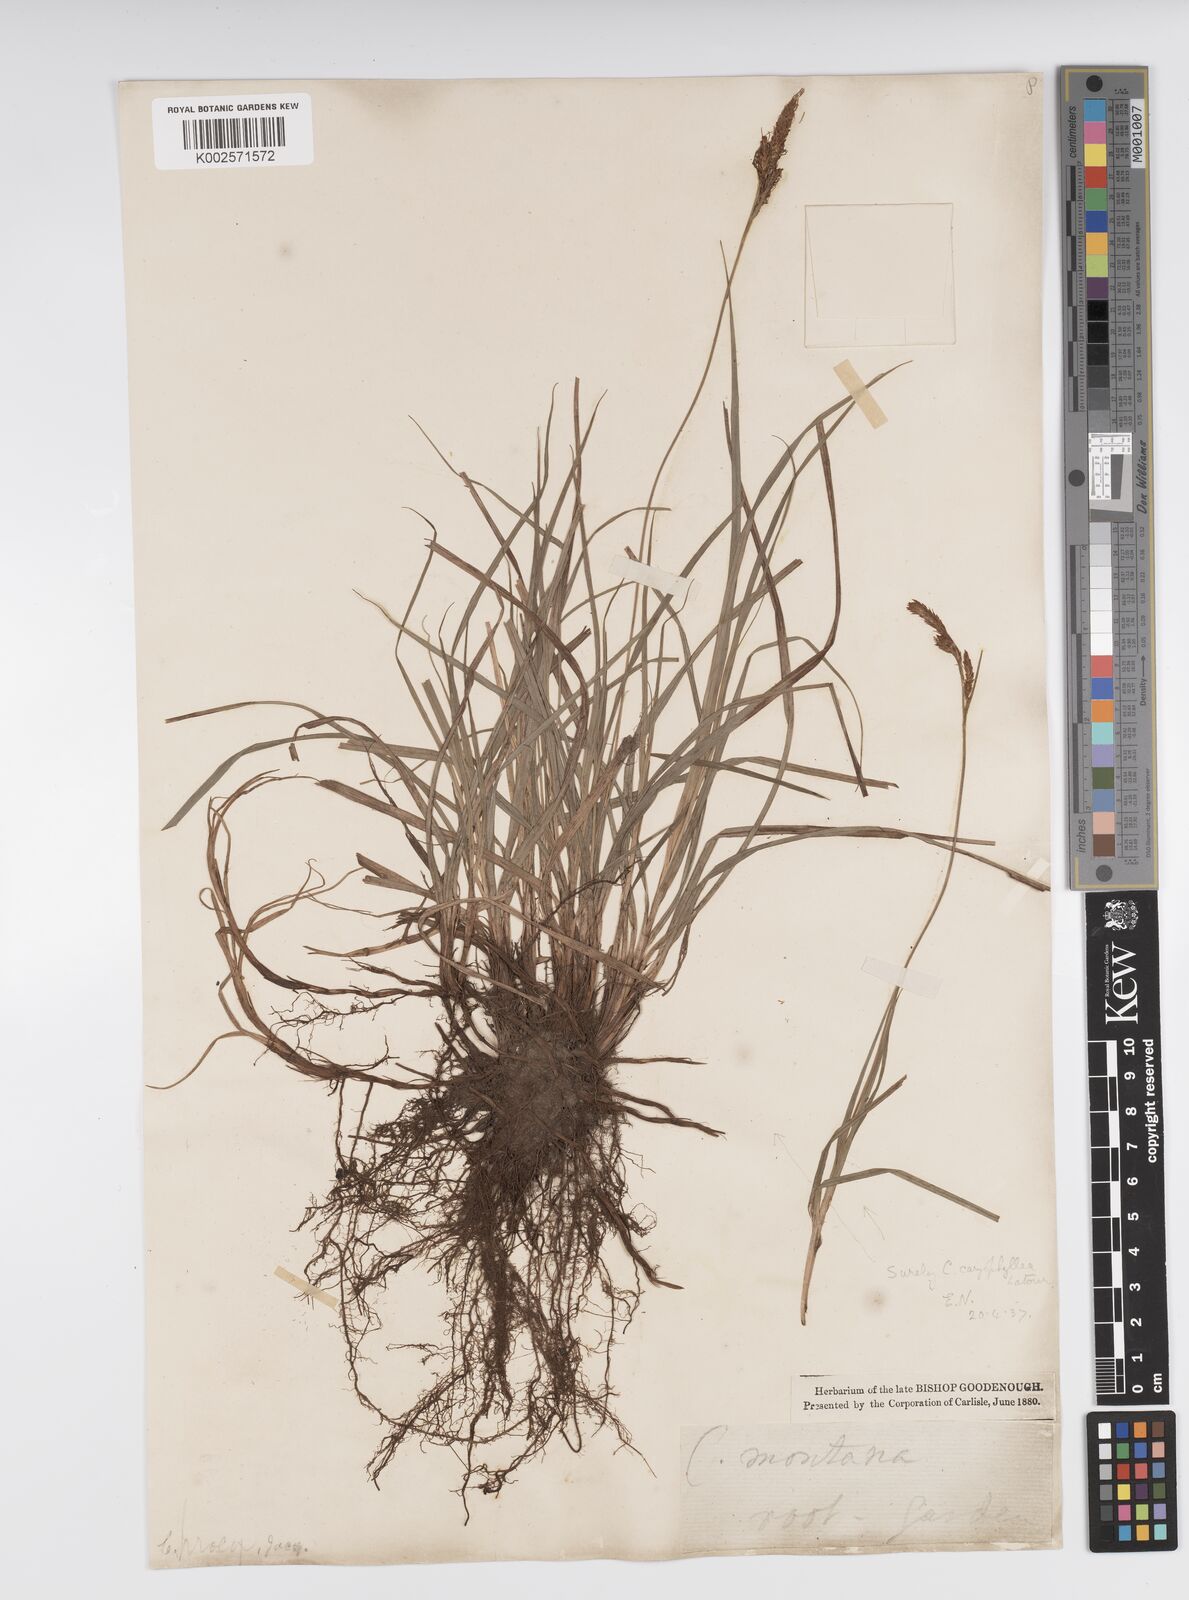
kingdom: Plantae
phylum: Tracheophyta
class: Liliopsida
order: Poales
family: Cyperaceae
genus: Carex
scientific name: Carex caryophyllea
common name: Spring sedge
